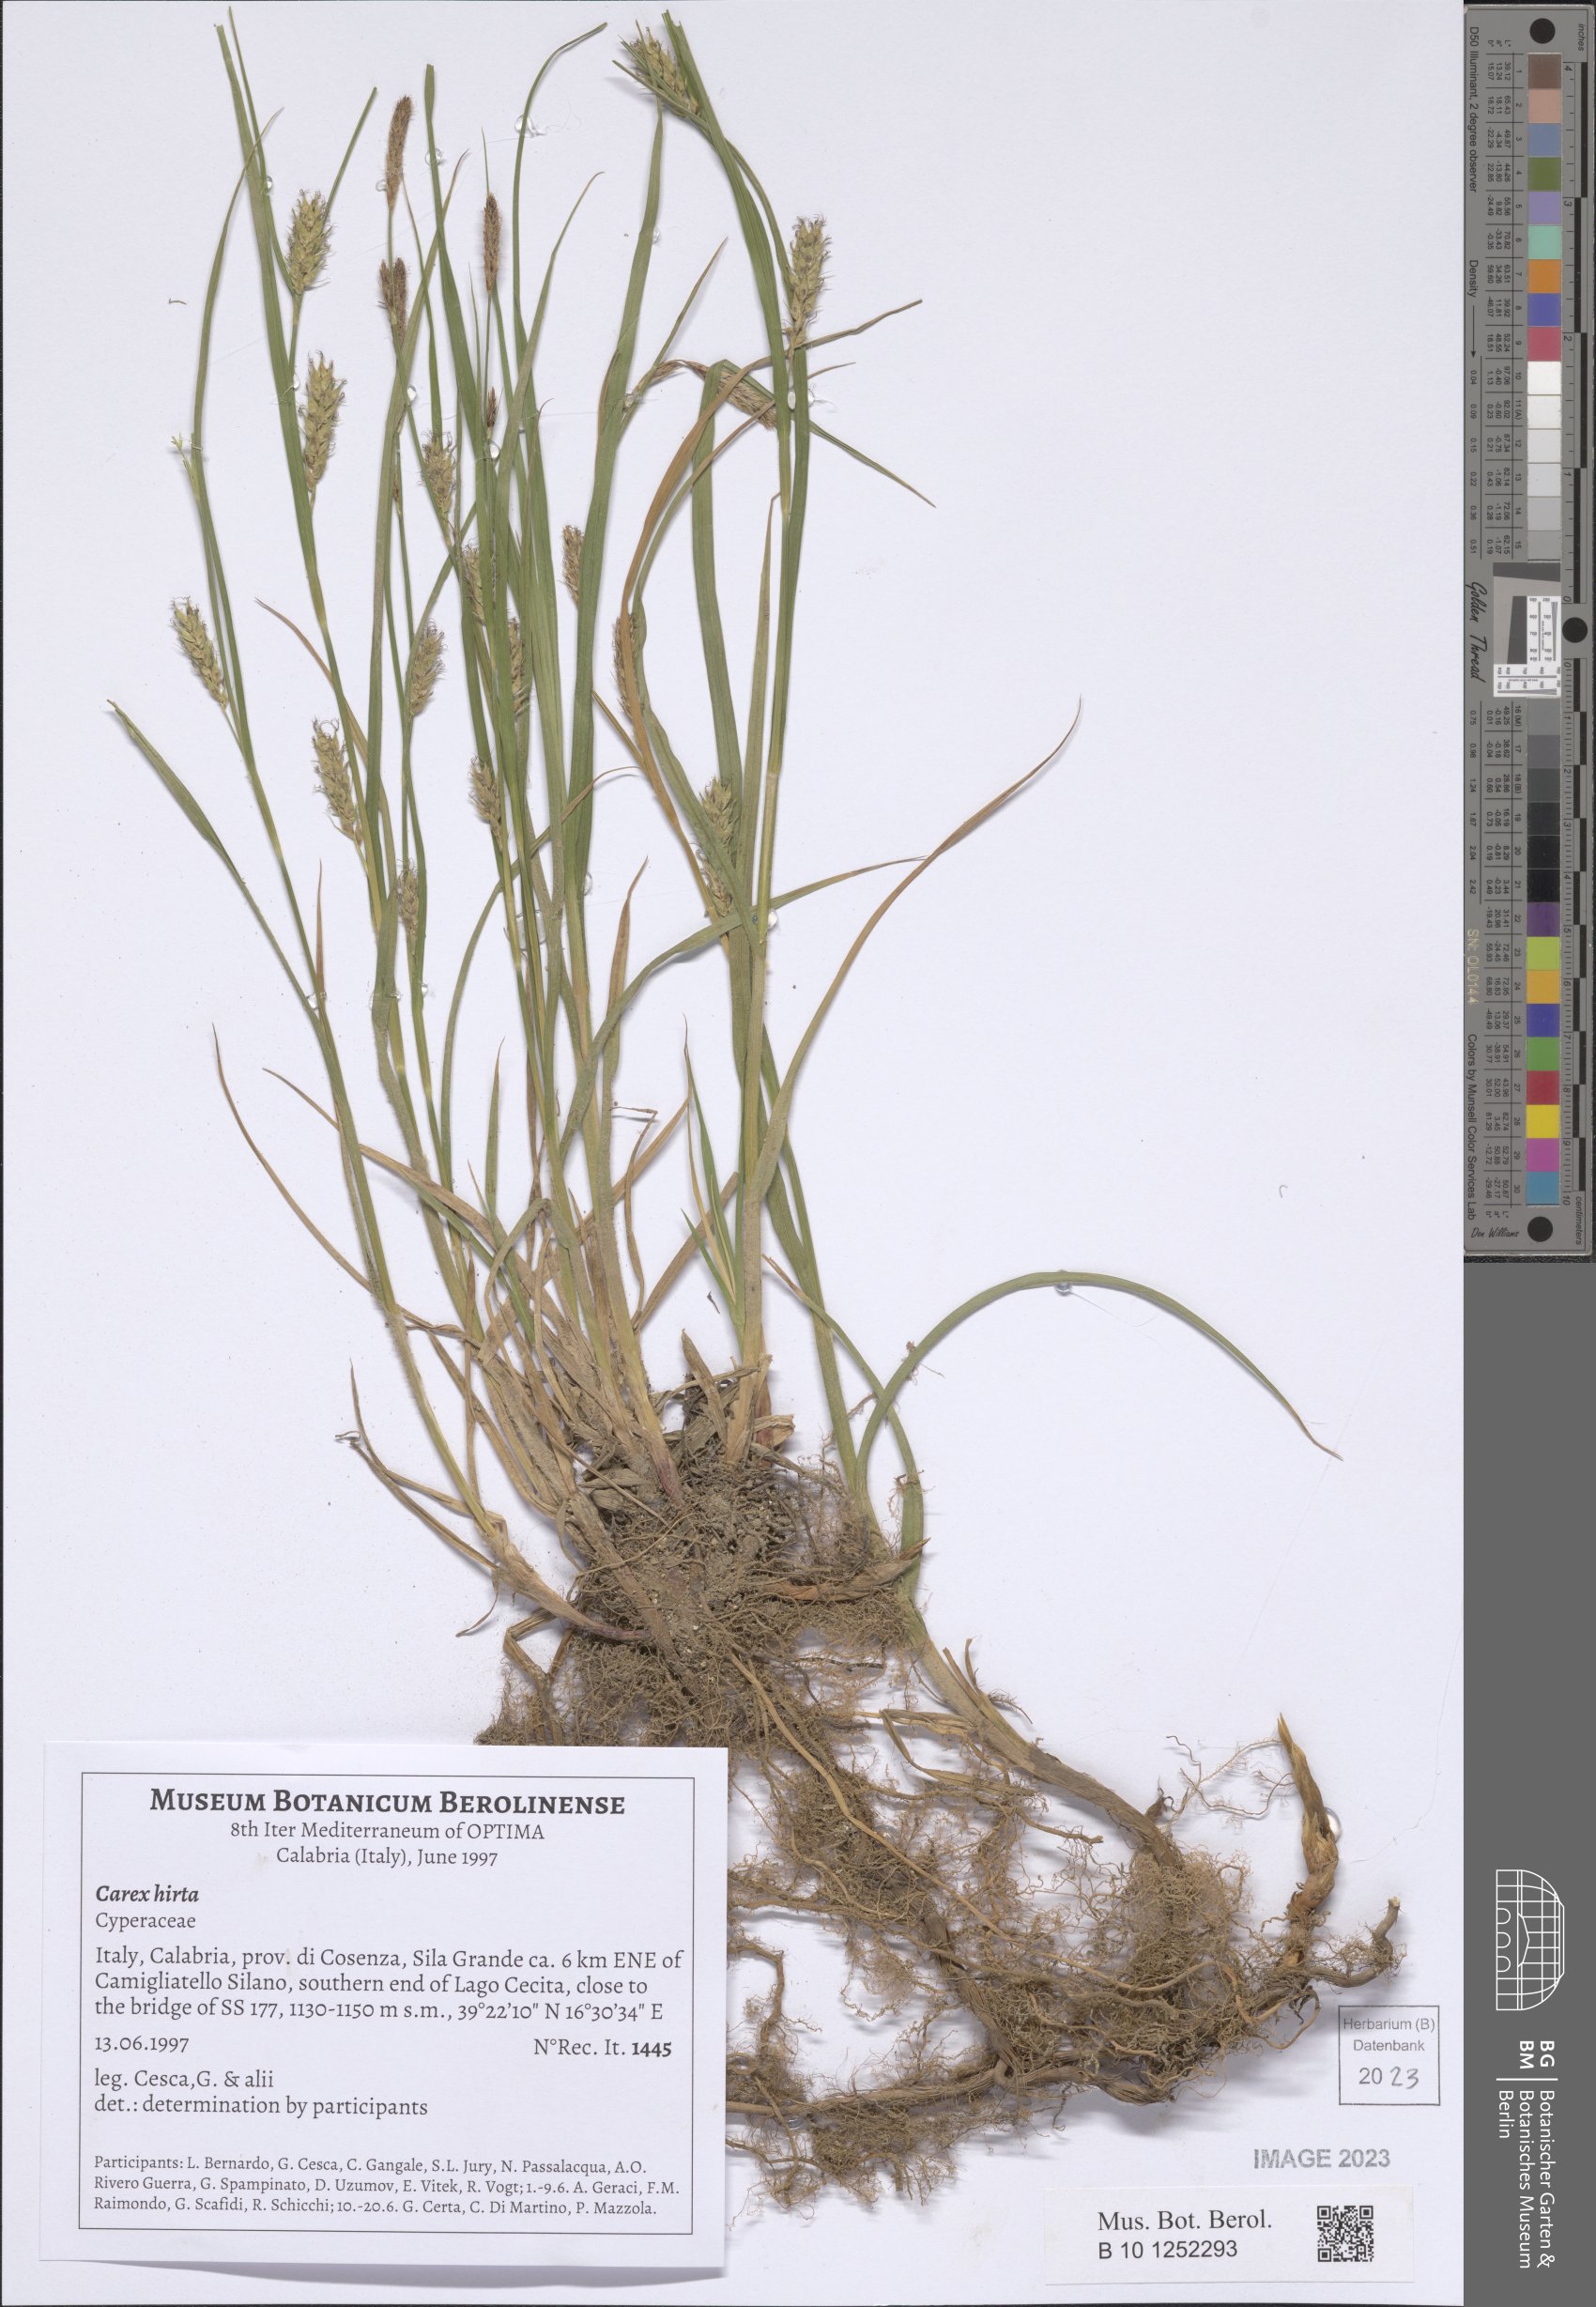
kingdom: Plantae
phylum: Tracheophyta
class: Liliopsida
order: Poales
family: Cyperaceae
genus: Carex
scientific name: Carex hirta
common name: Hairy sedge
